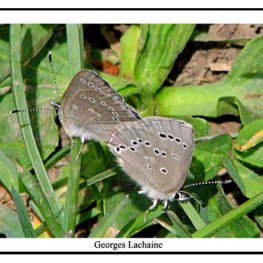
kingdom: Animalia
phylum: Arthropoda
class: Insecta
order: Lepidoptera
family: Lycaenidae
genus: Glaucopsyche
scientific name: Glaucopsyche lygdamus
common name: Silvery Blue
